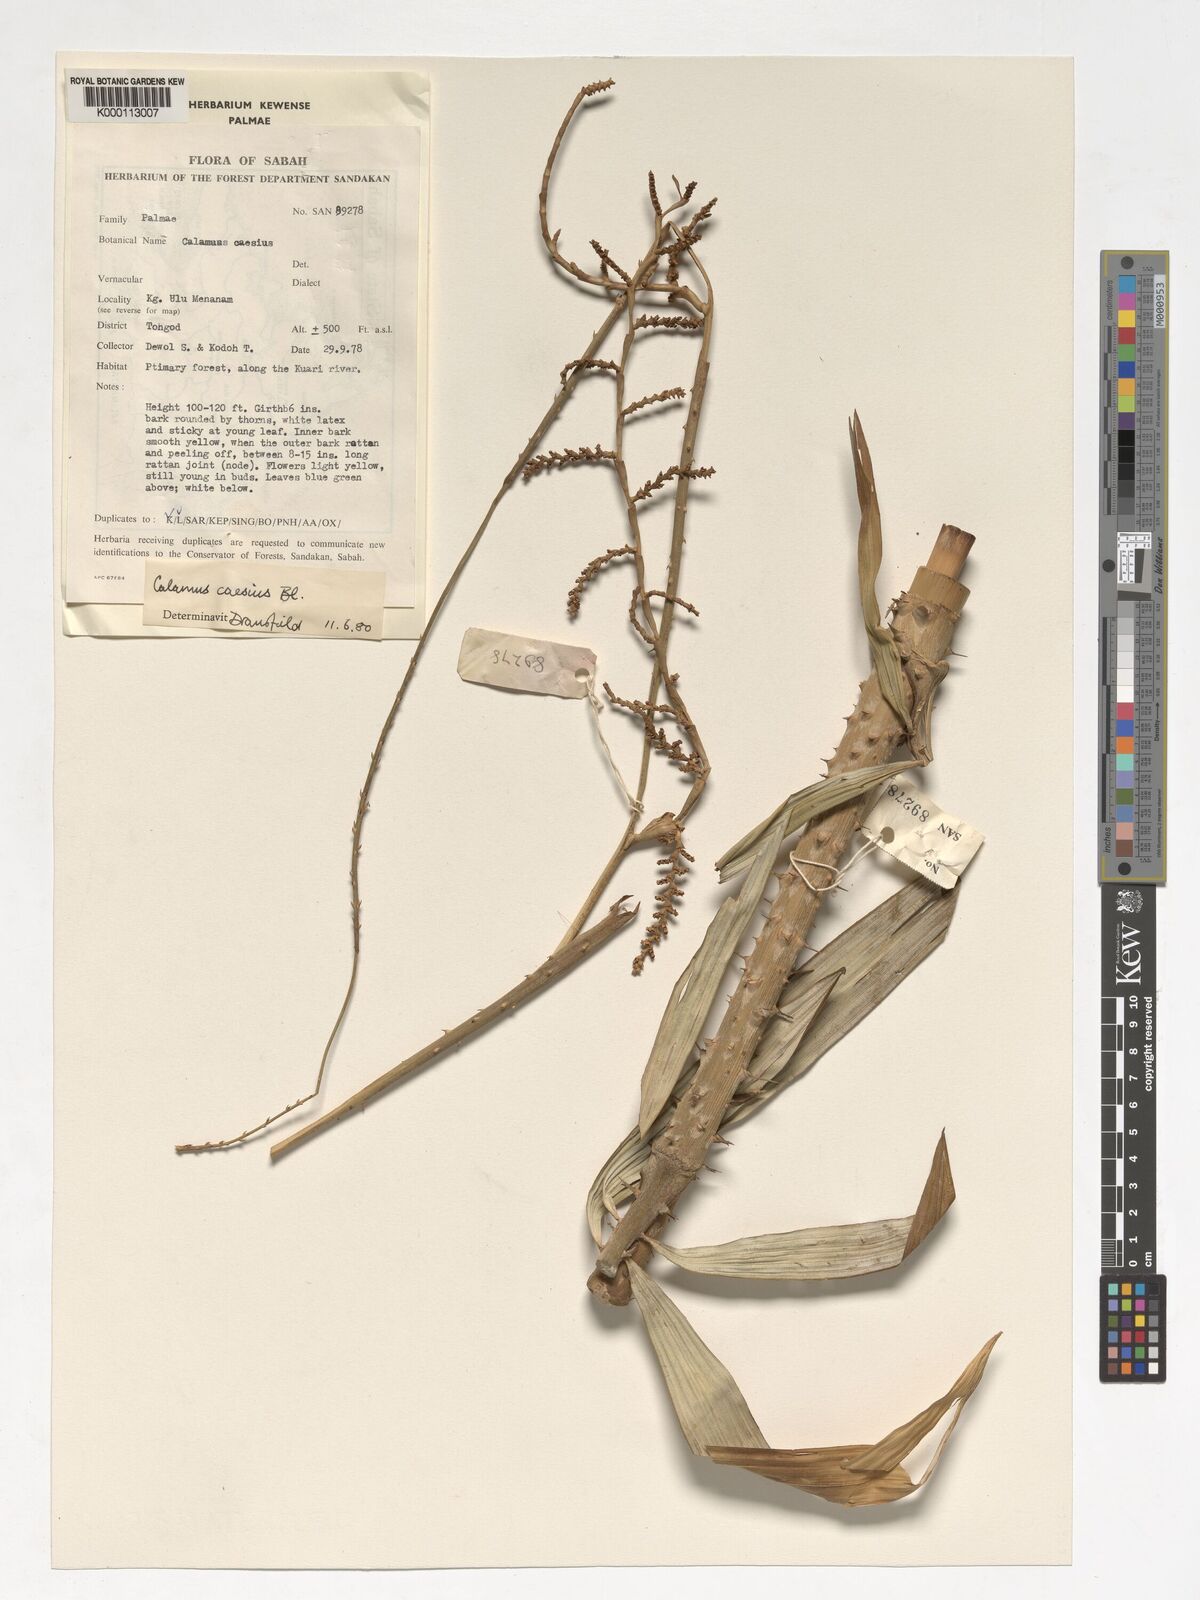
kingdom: Plantae
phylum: Tracheophyta
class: Liliopsida
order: Arecales
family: Arecaceae
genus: Calamus
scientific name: Calamus caesius
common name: Rattan palm
